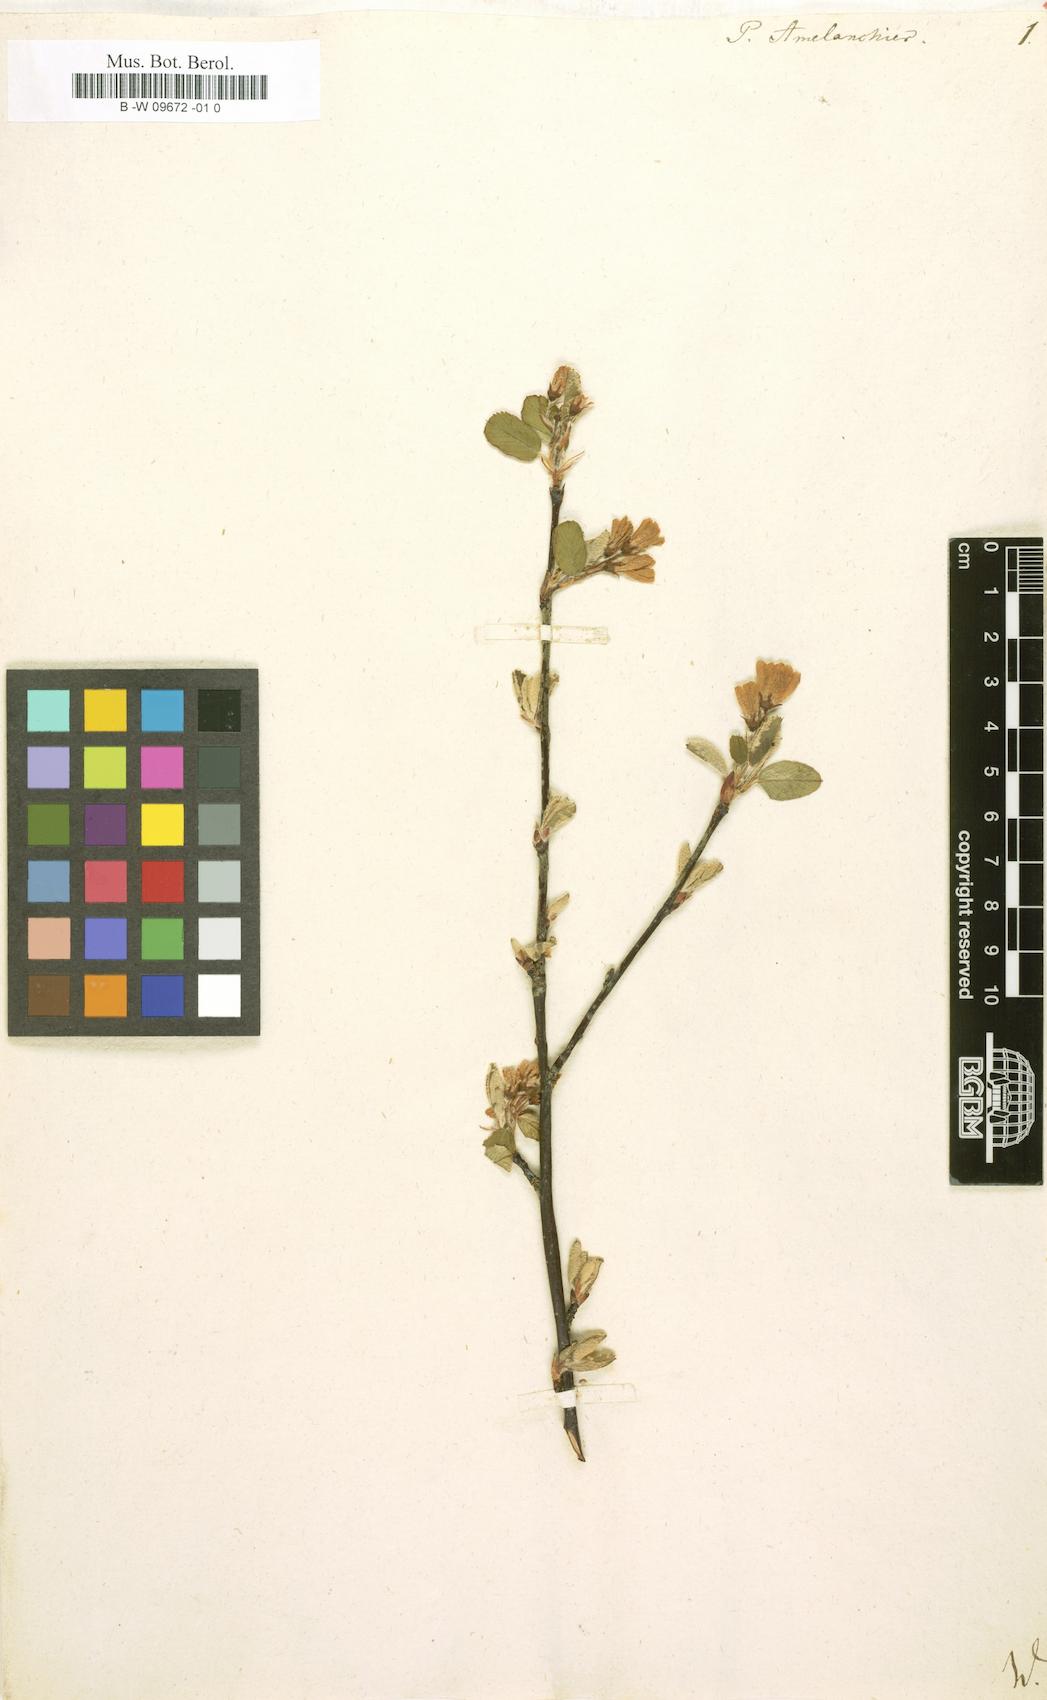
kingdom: Plantae
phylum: Tracheophyta
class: Magnoliopsida
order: Rosales
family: Rosaceae
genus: Pyrus
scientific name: Pyrus amelanchier
